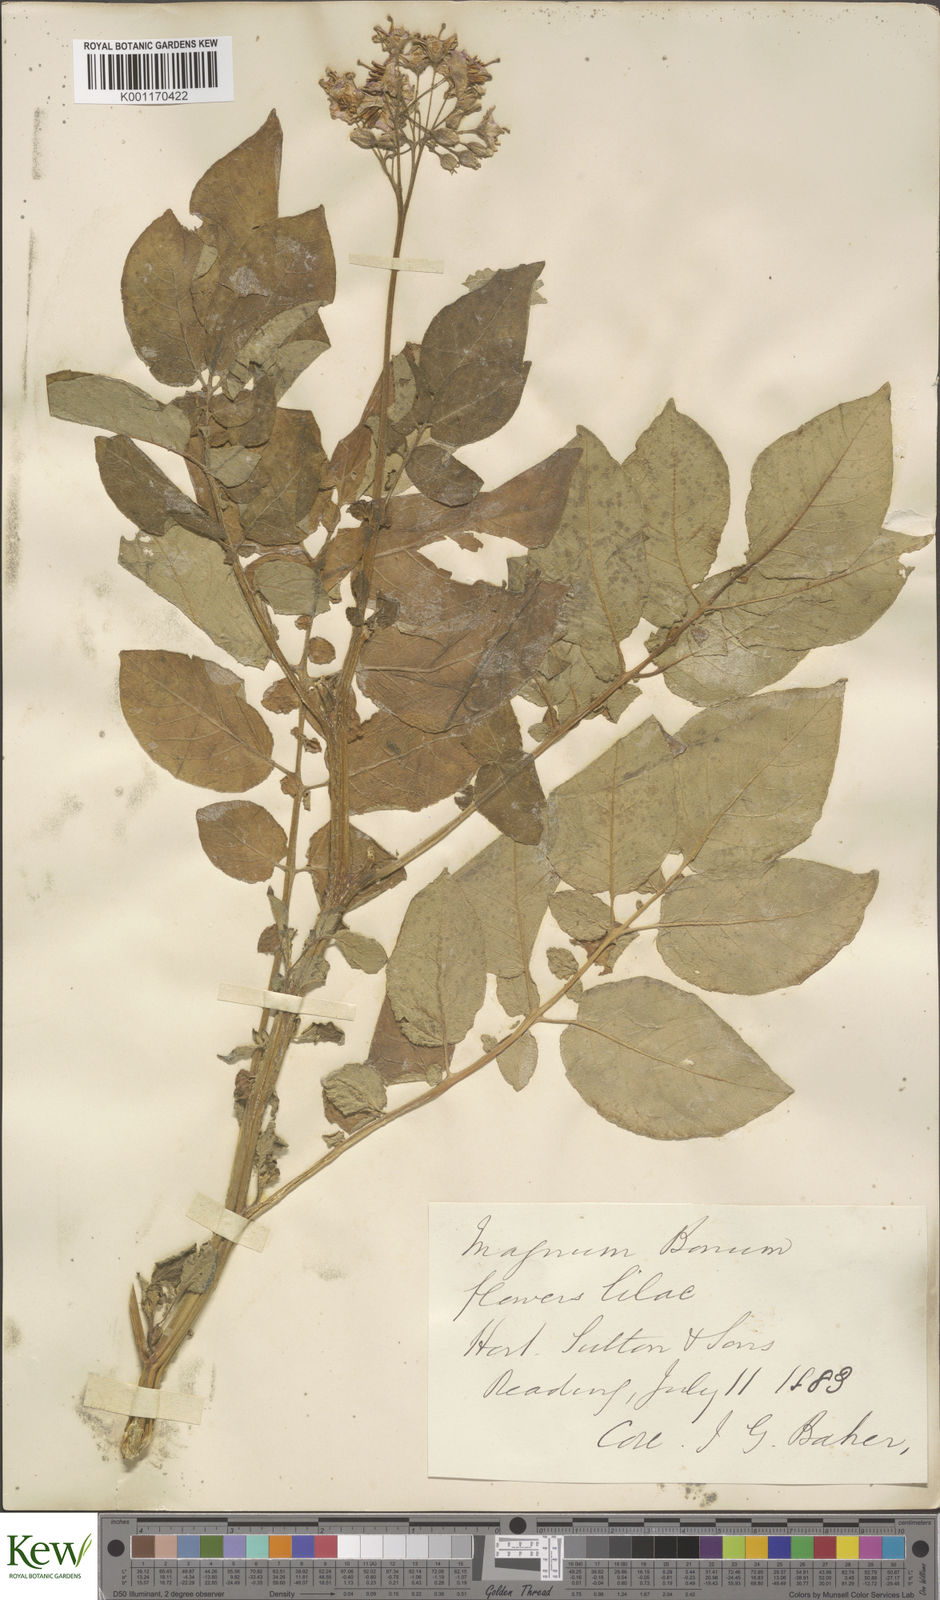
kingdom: Plantae
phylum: Tracheophyta
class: Magnoliopsida
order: Solanales
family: Solanaceae
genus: Solanum
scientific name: Solanum tuberosum
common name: Potato
